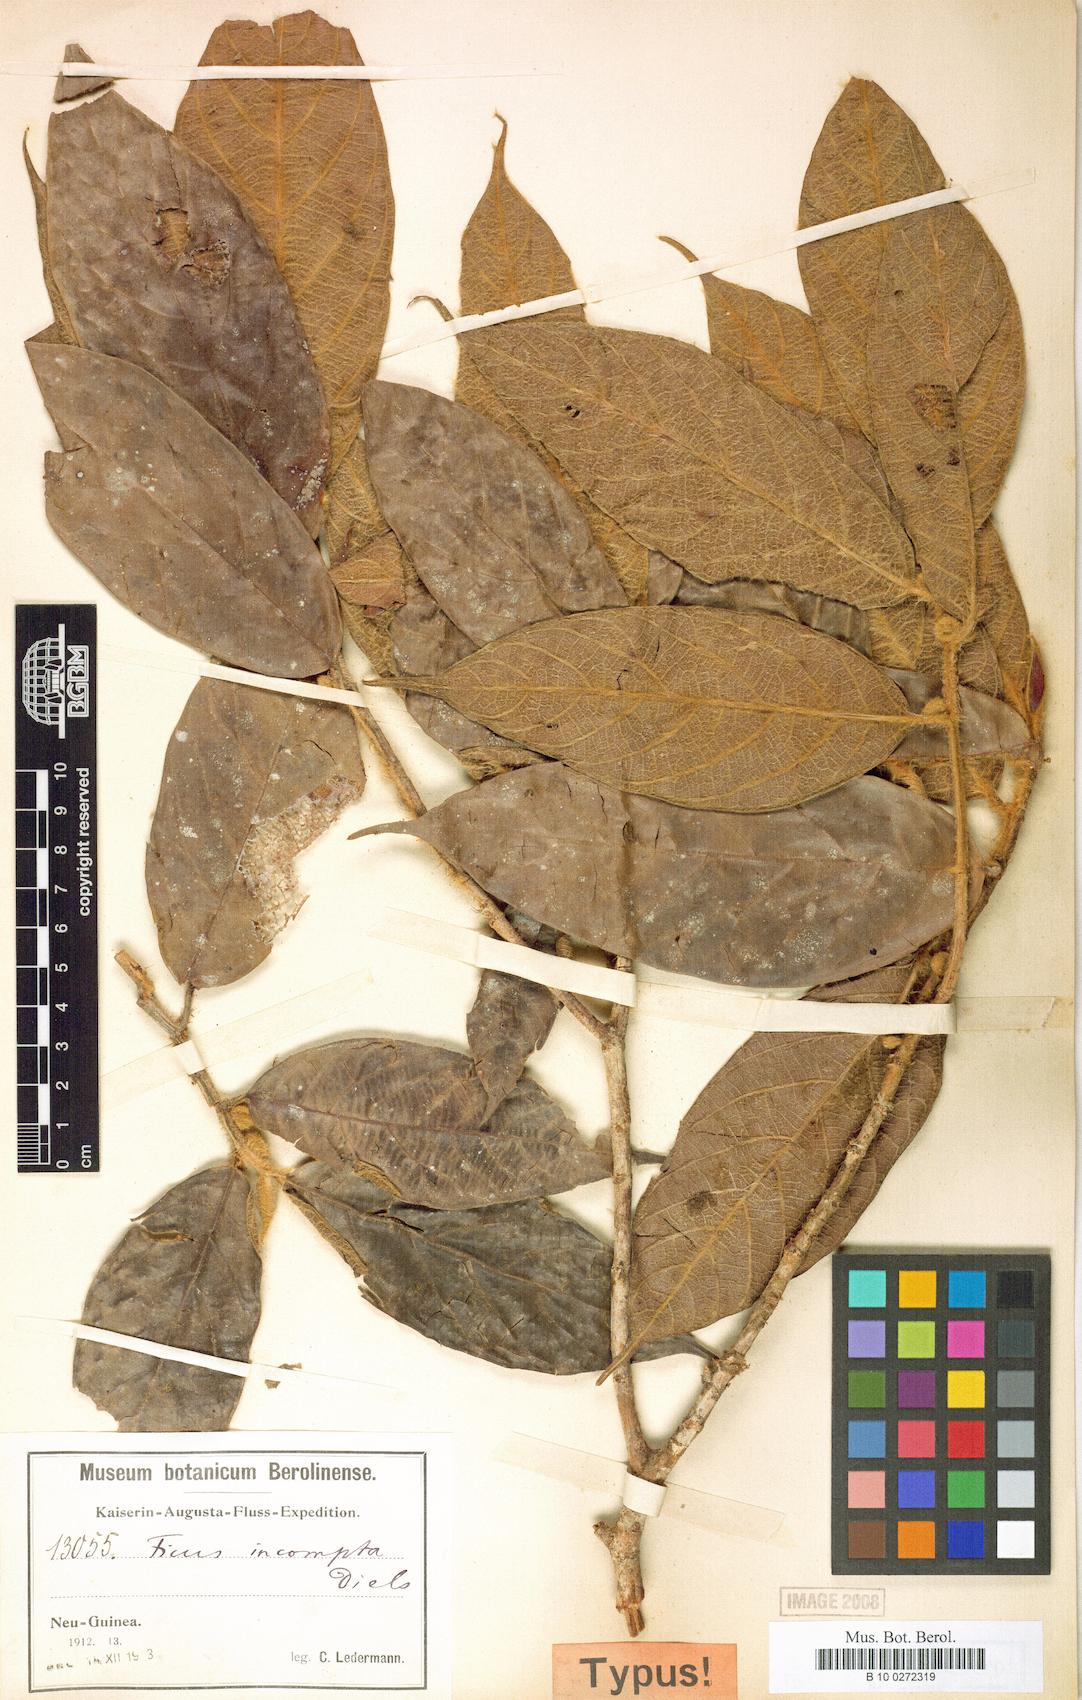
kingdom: Plantae
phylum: Tracheophyta
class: Magnoliopsida
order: Rosales
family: Moraceae
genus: Ficus
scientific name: Ficus trichocerasa
